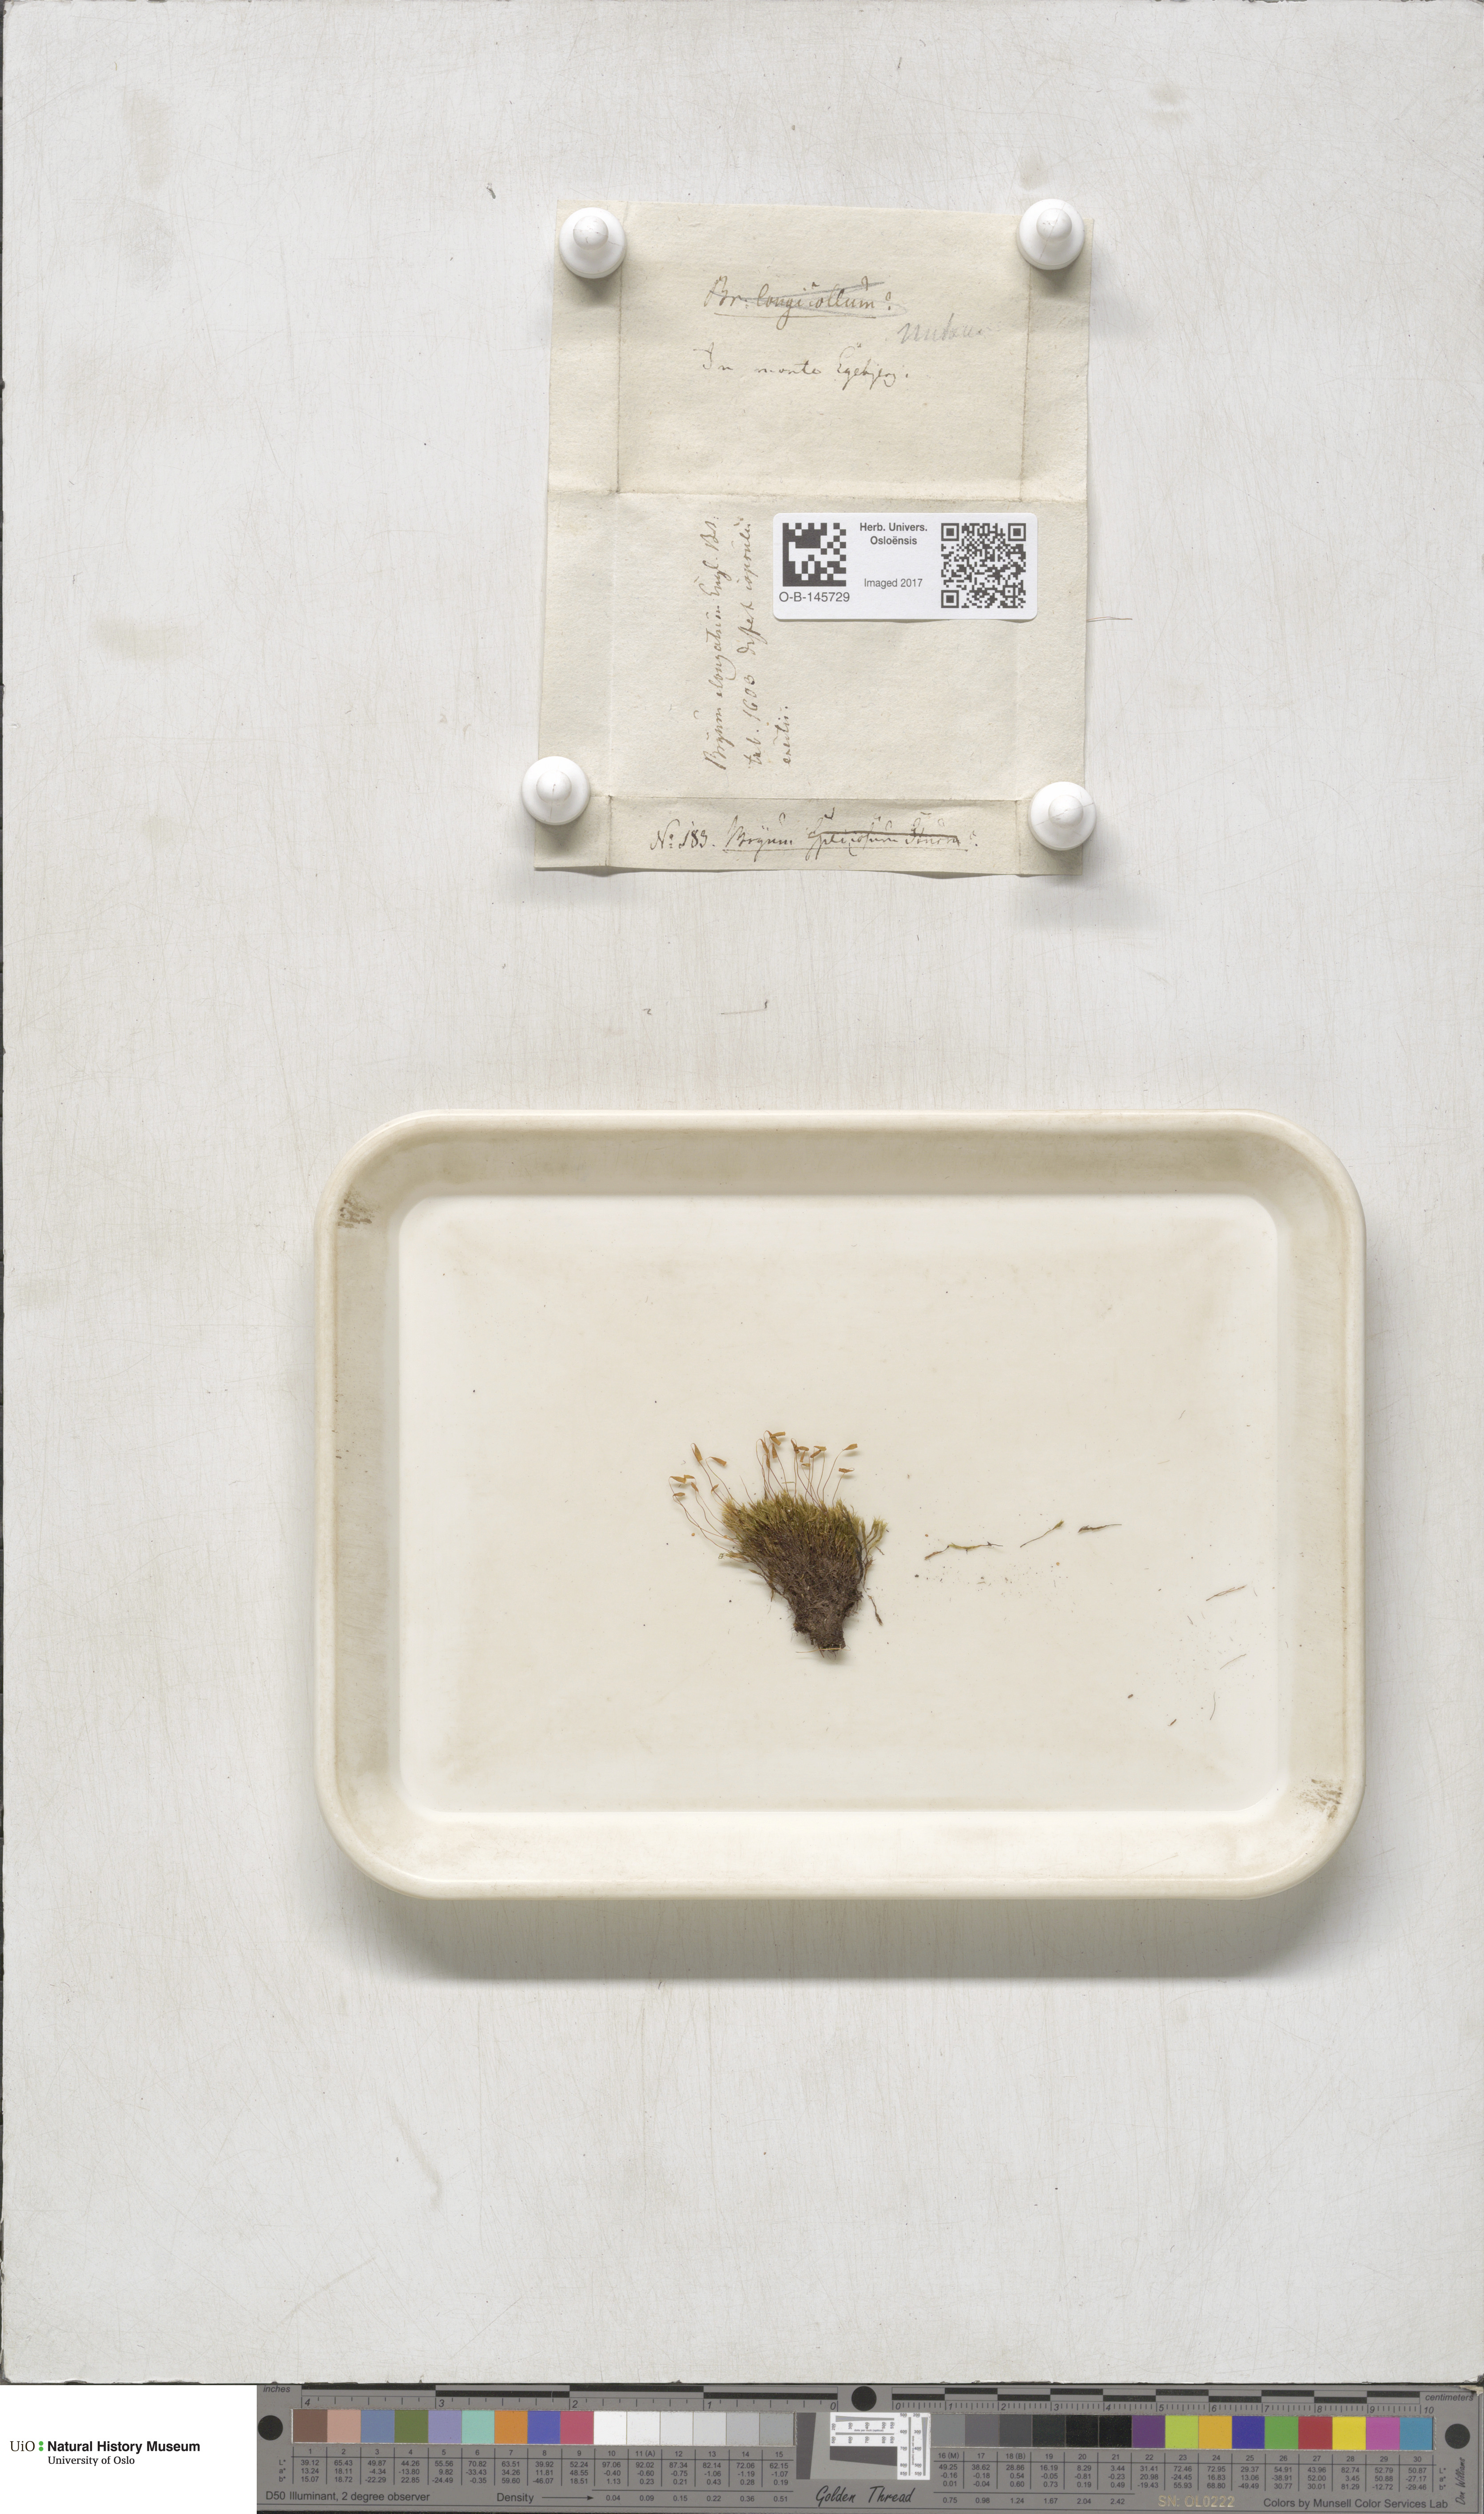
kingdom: Plantae
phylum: Bryophyta
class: Bryopsida
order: Bryales
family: Mniaceae
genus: Pohlia
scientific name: Pohlia nutans
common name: Nodding thread-moss
